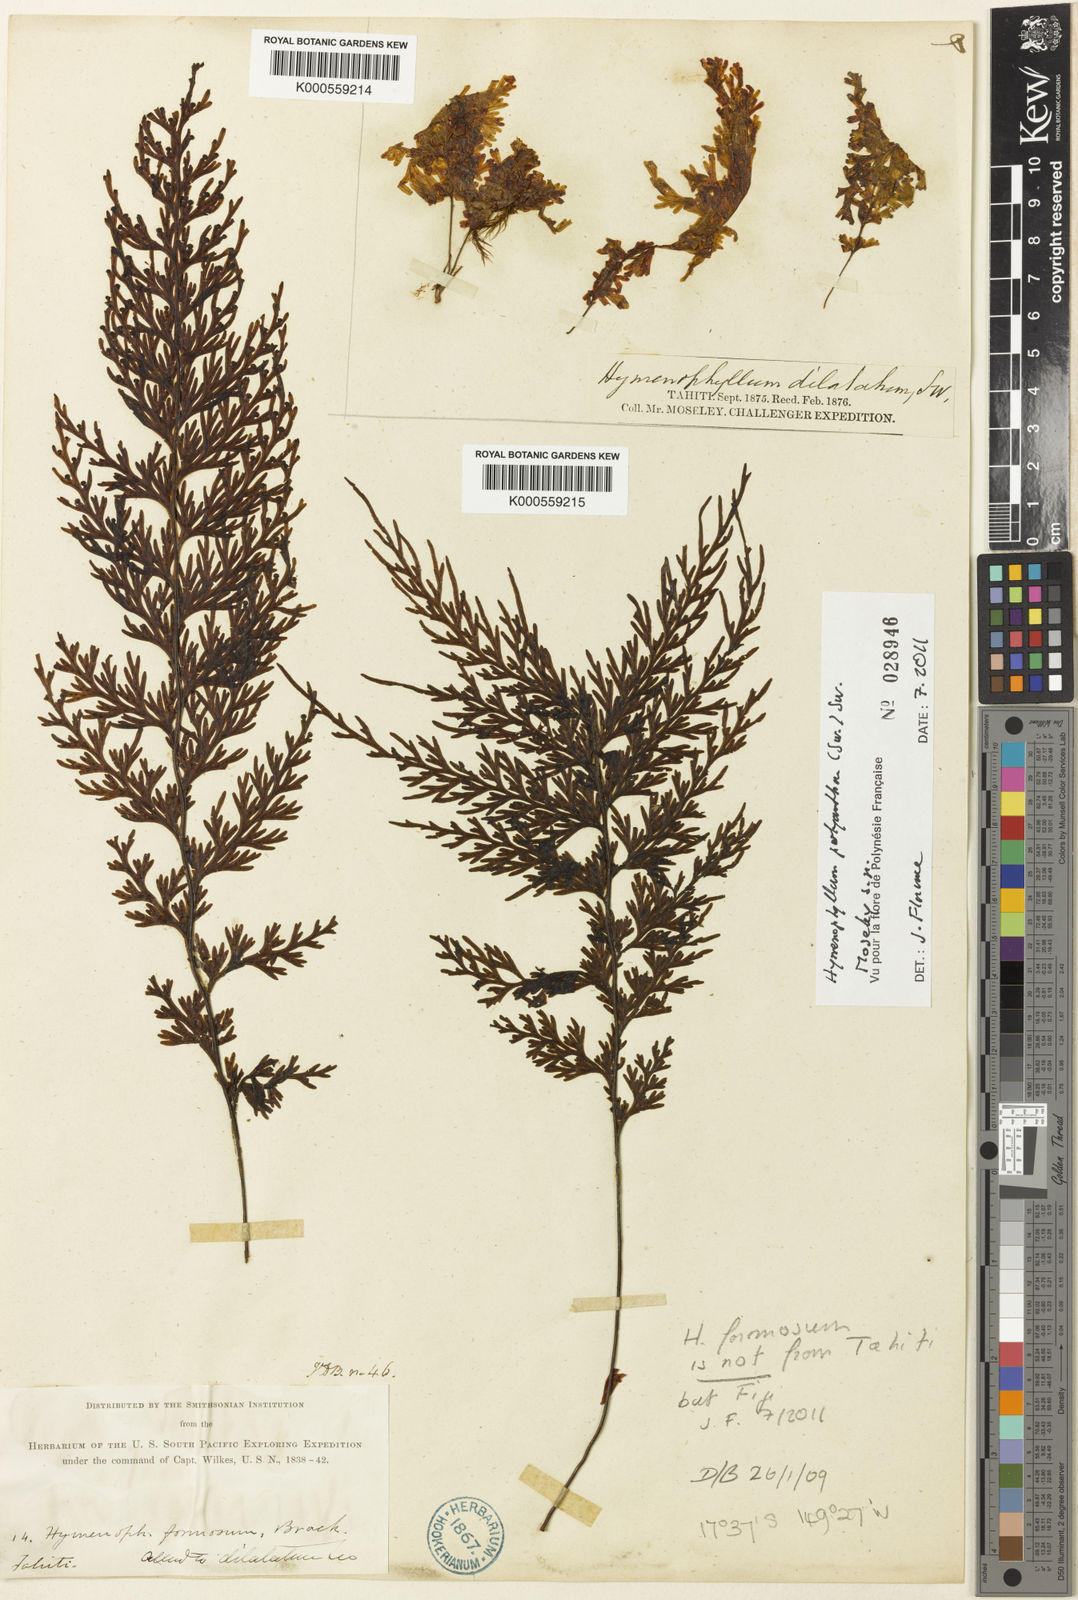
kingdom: Plantae
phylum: Tracheophyta
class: Polypodiopsida
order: Hymenophyllales
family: Hymenophyllaceae
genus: Hymenophyllum
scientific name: Hymenophyllum polyanthos
